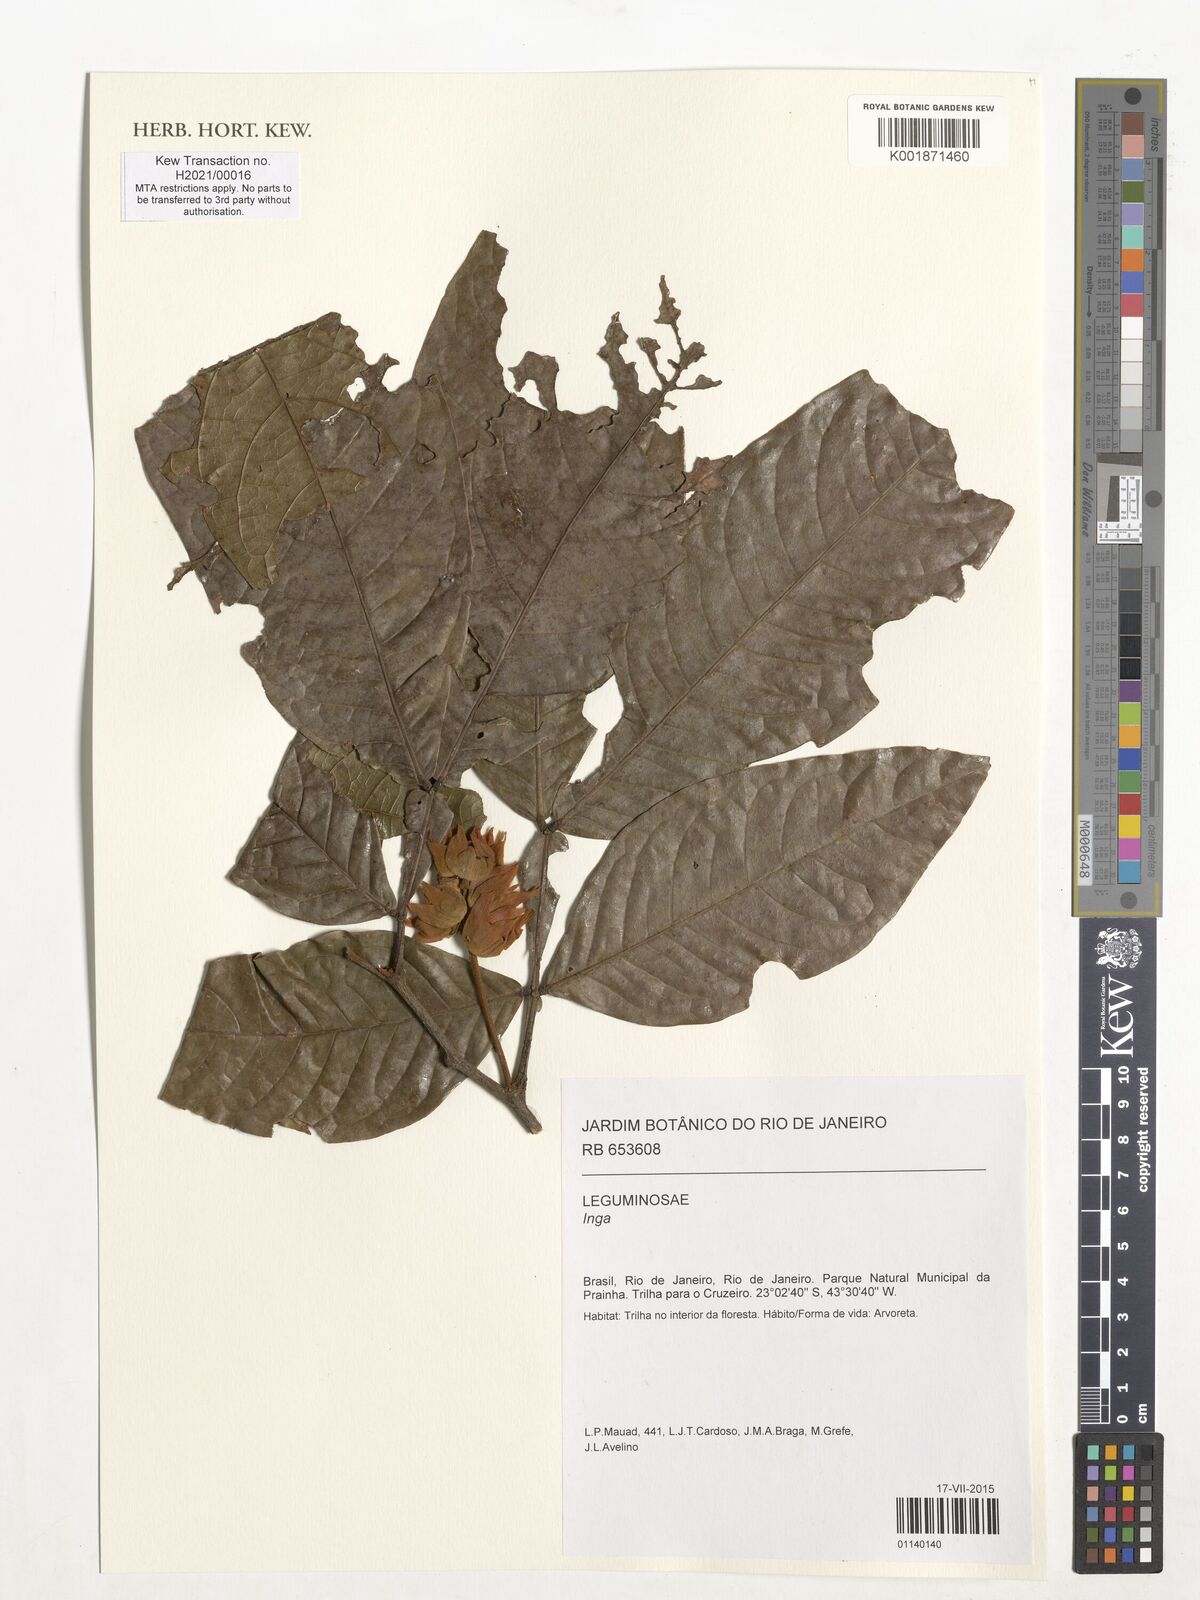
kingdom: Plantae
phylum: Tracheophyta
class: Magnoliopsida
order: Fabales
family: Fabaceae
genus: Inga
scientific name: Inga
